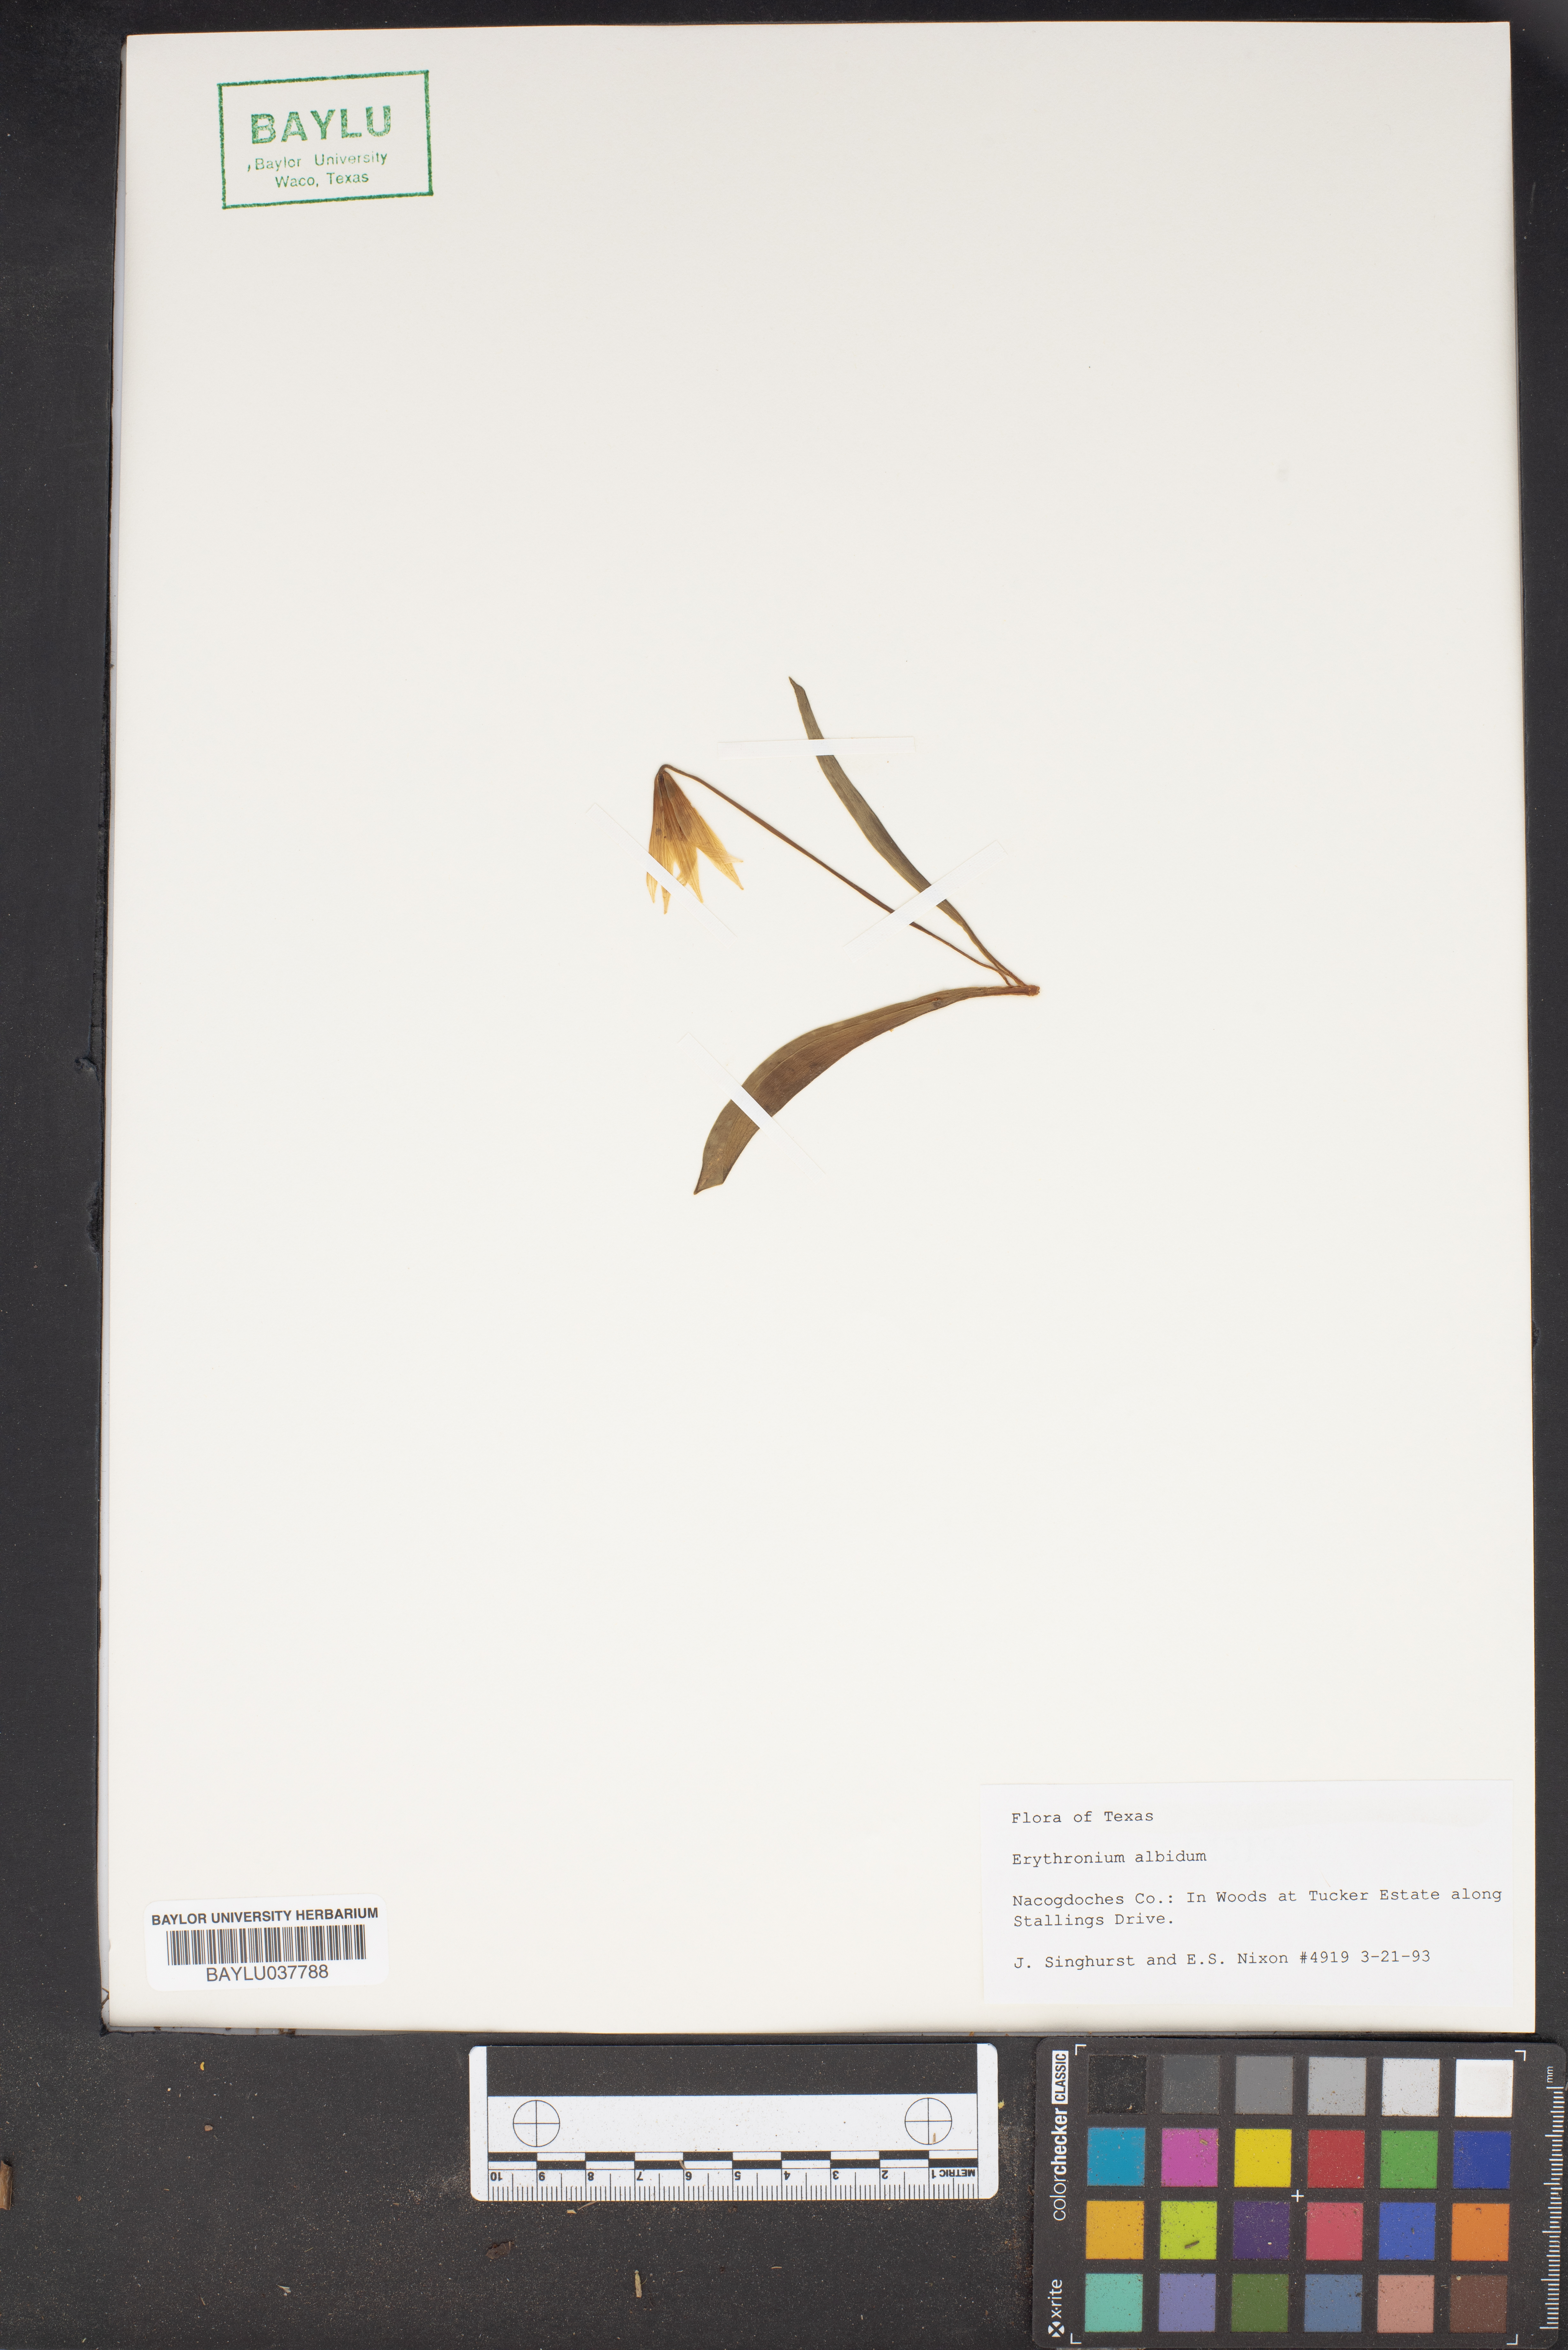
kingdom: Plantae
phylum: Tracheophyta
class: Liliopsida
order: Liliales
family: Liliaceae
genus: Erythronium
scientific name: Erythronium albidum
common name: White trout-lily
